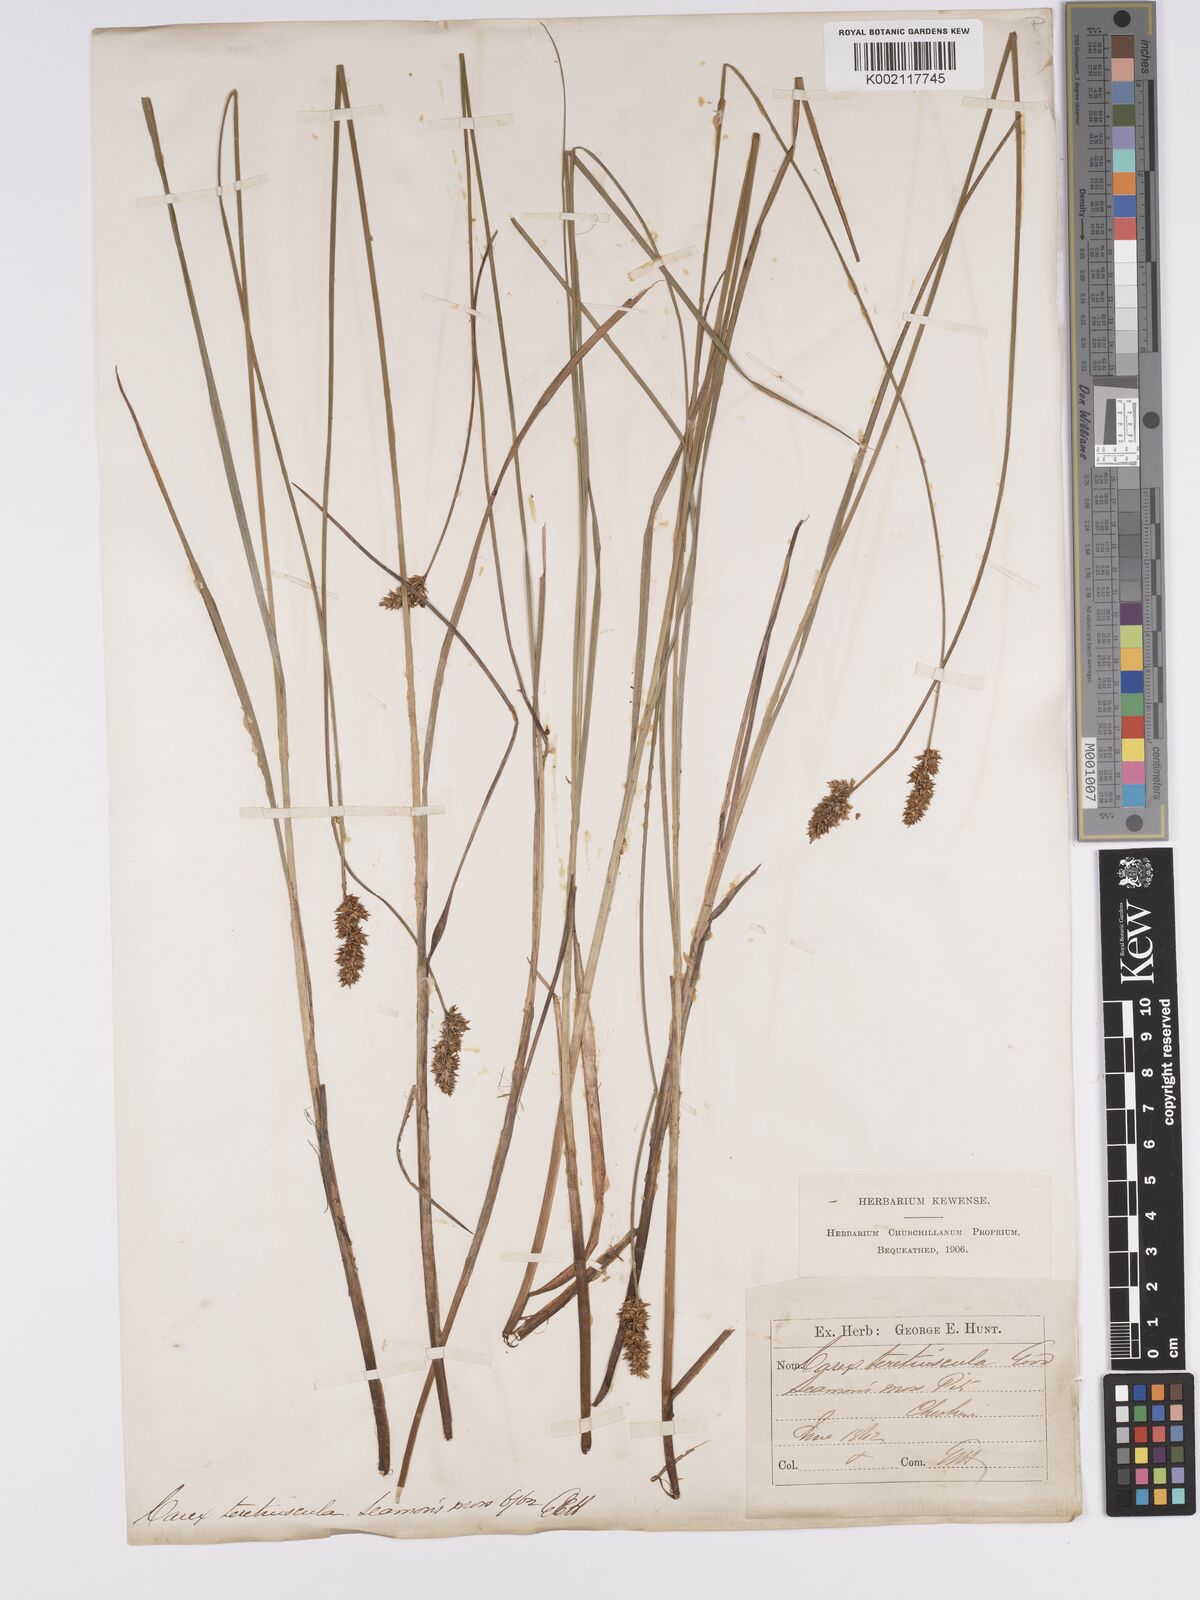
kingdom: Plantae
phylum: Tracheophyta
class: Liliopsida
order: Poales
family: Cyperaceae
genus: Carex
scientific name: Carex diandra
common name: Lesser tussock-sedge
